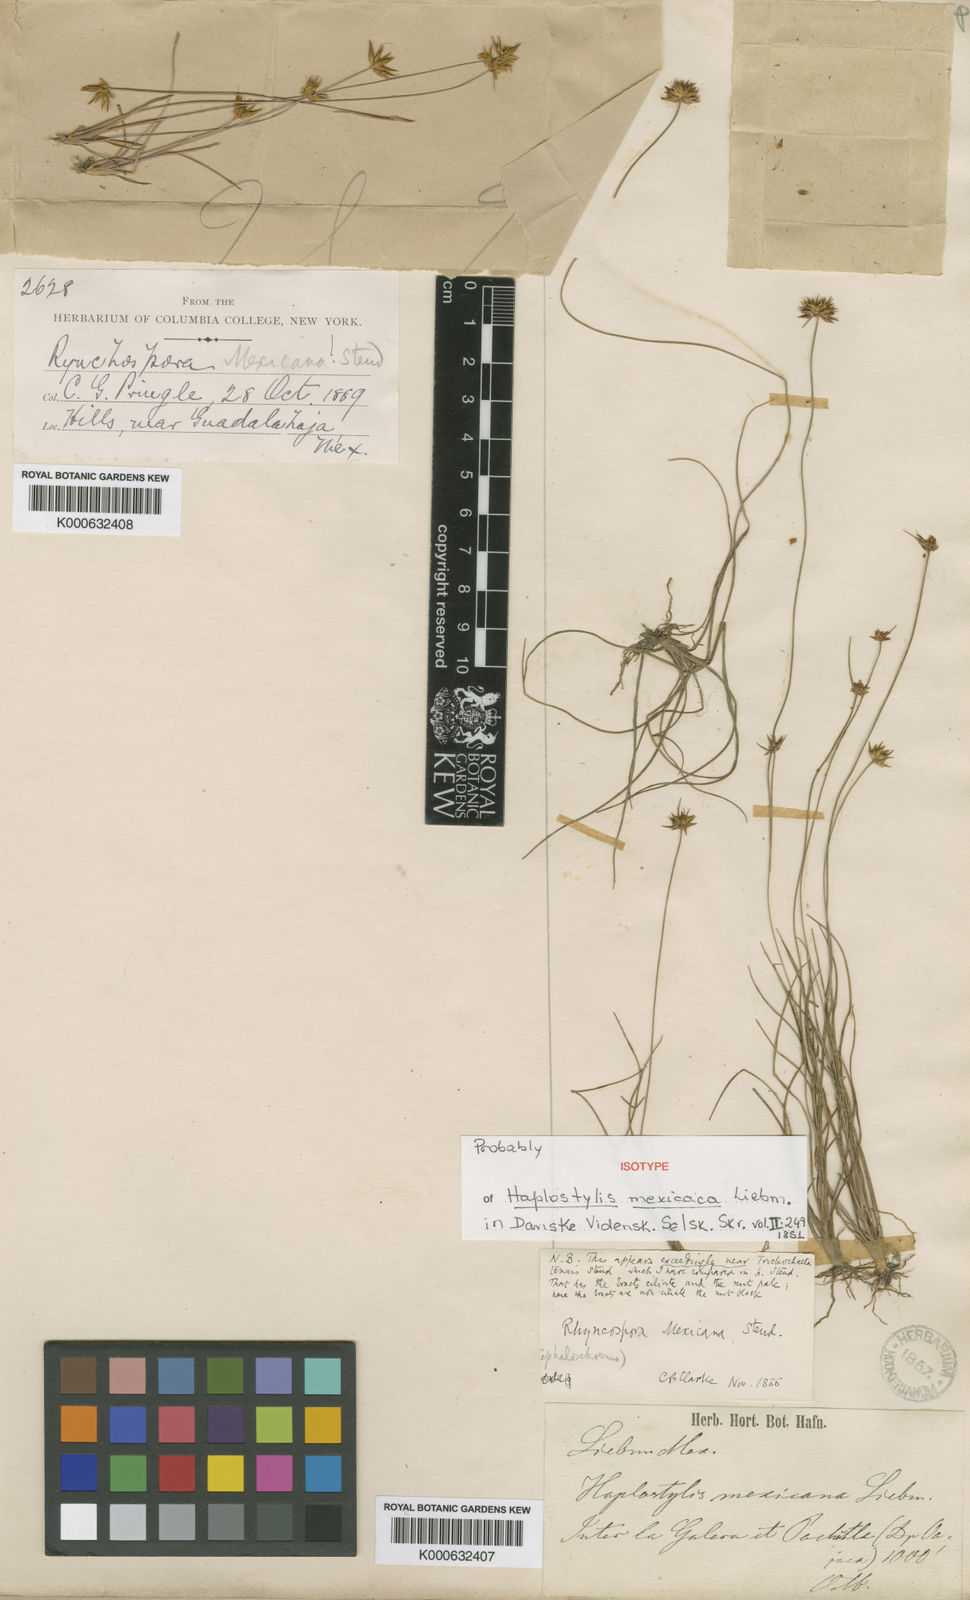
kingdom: Plantae
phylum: Tracheophyta
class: Liliopsida
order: Poales
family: Cyperaceae
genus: Rhynchospora
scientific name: Rhynchospora mexicana
